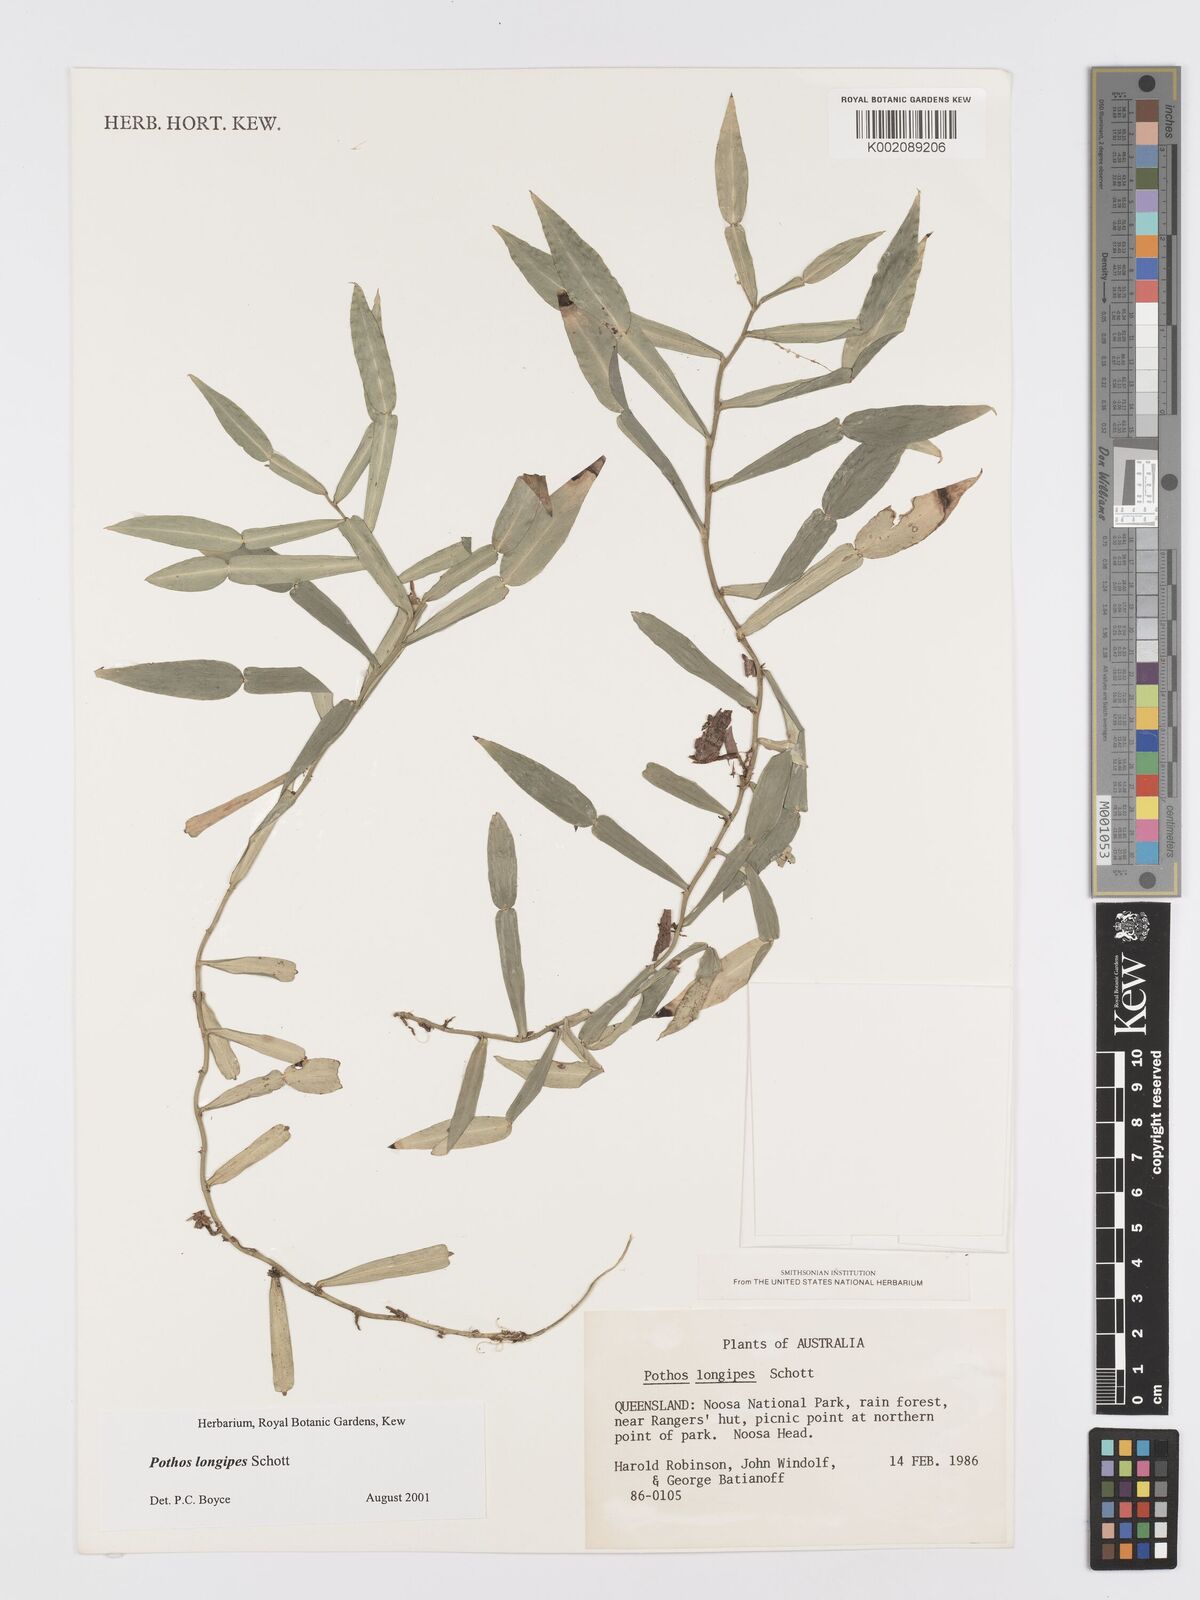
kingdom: Plantae
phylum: Tracheophyta
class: Liliopsida
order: Alismatales
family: Araceae
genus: Pothos
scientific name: Pothos longipes
